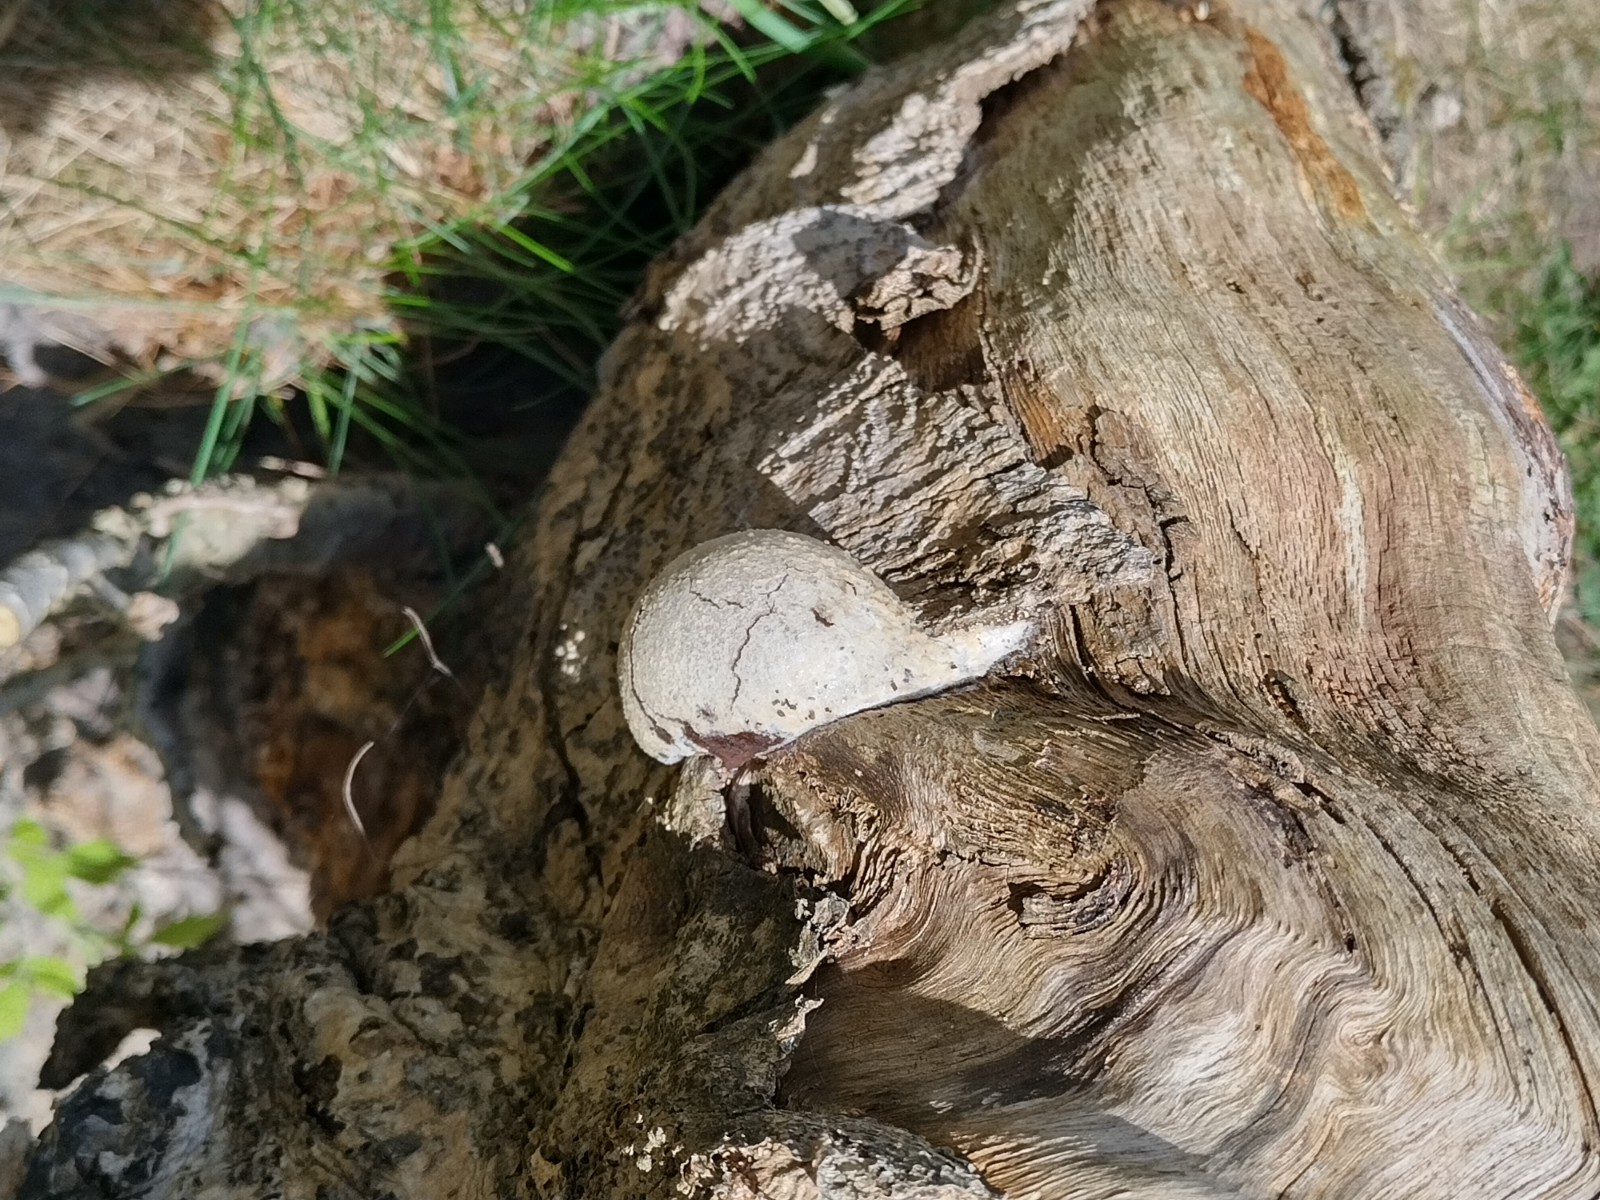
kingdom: Protozoa
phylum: Mycetozoa
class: Myxomycetes
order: Cribrariales
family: Tubiferaceae
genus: Reticularia
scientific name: Reticularia lycoperdon
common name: skinnende støvpude
